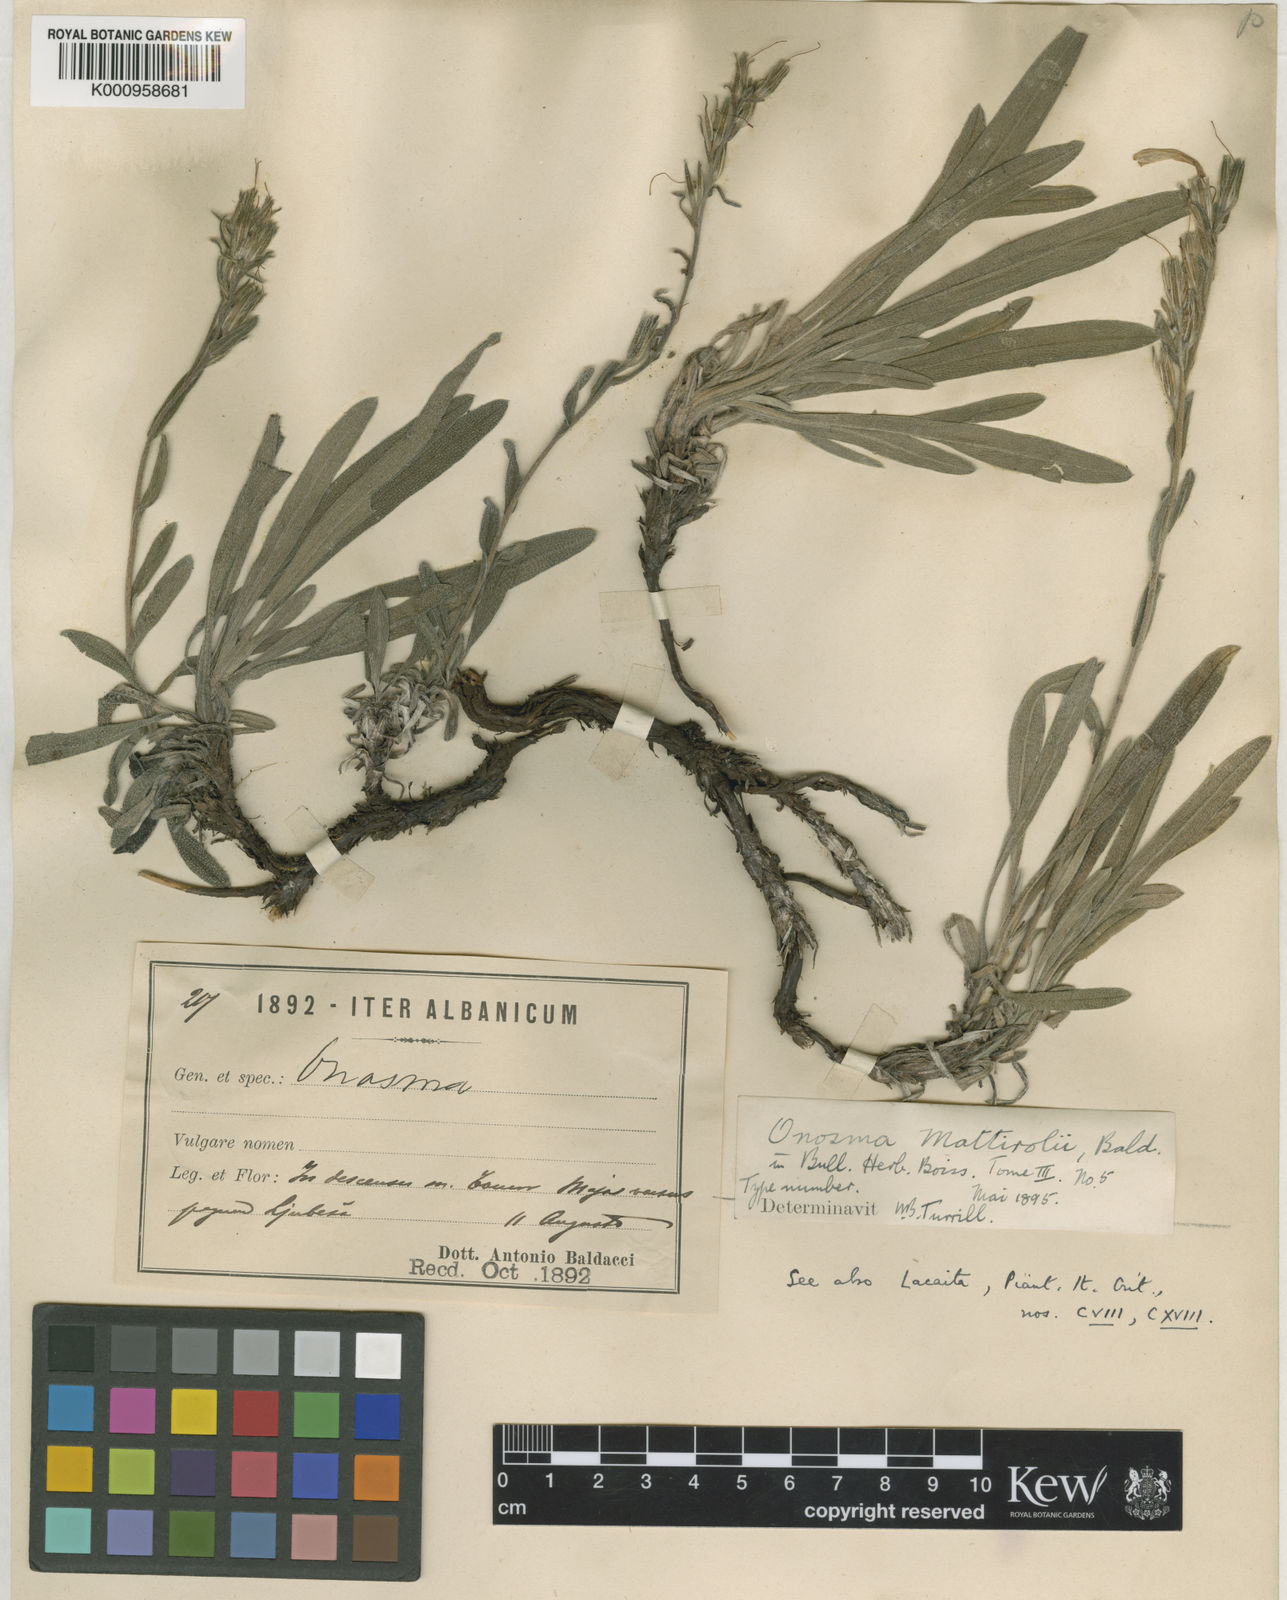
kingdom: Plantae
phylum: Tracheophyta
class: Magnoliopsida
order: Boraginales
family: Boraginaceae
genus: Onosma
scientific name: Onosma mattirolii
